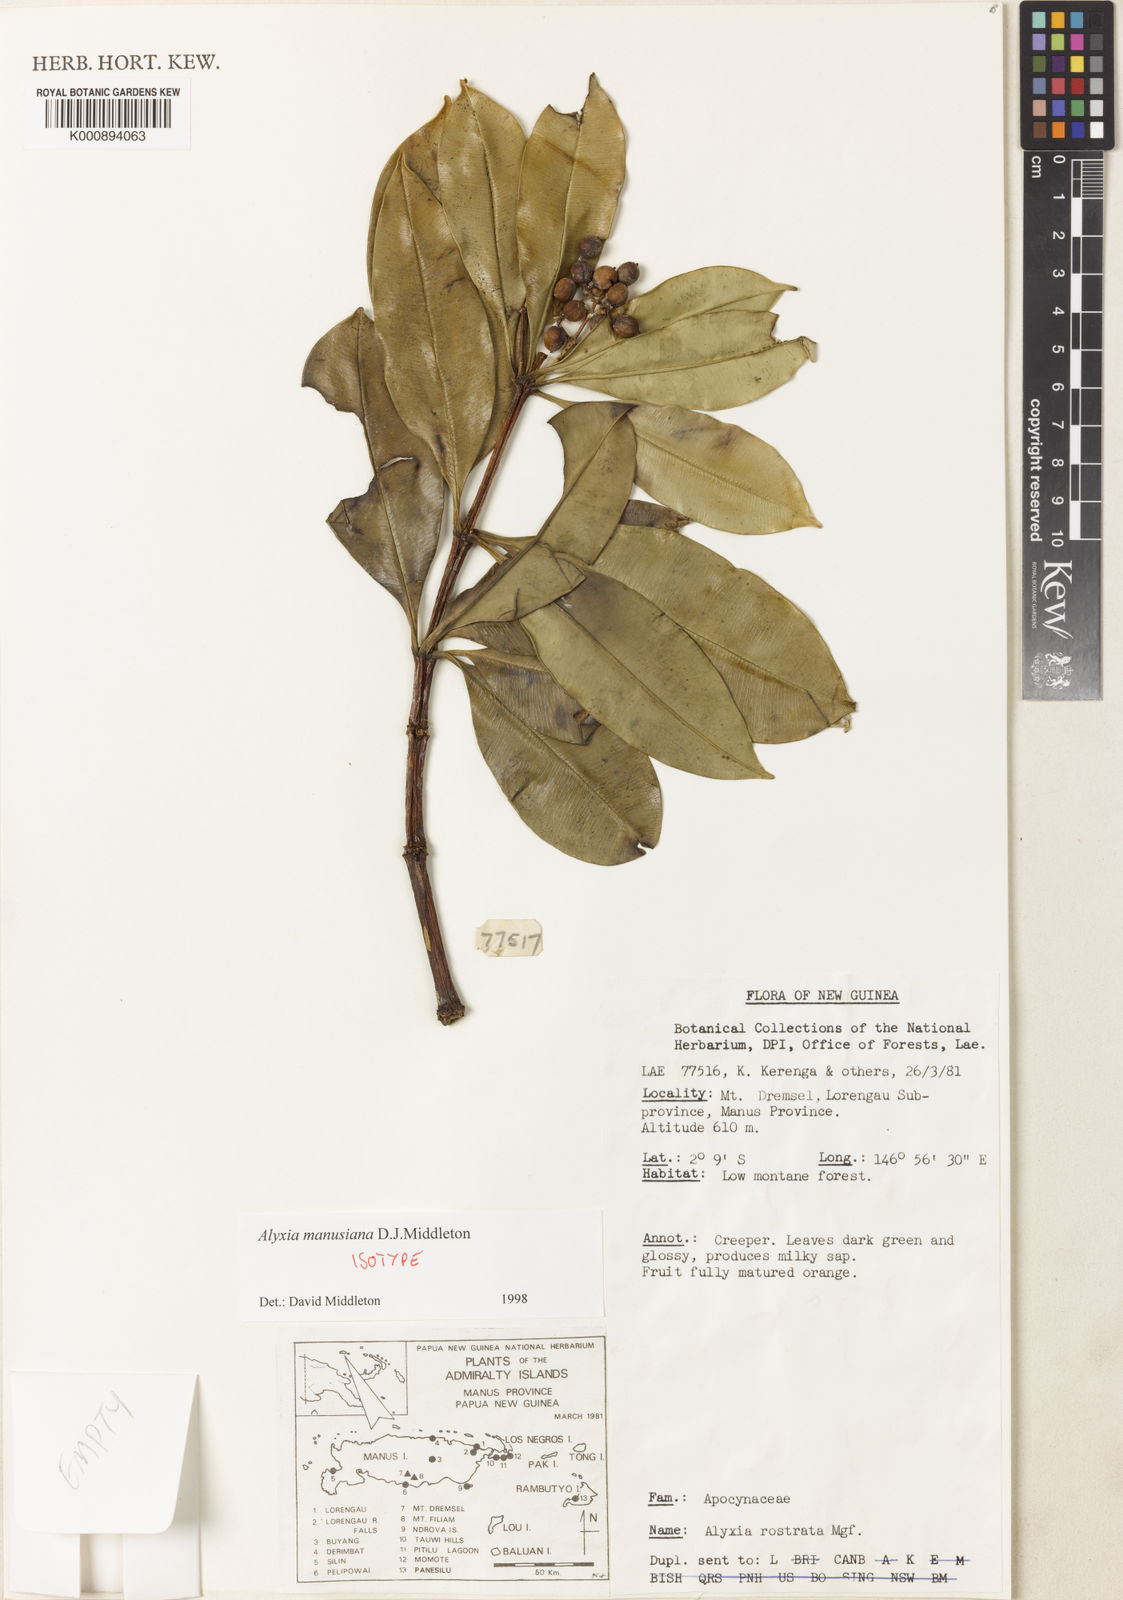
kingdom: Plantae
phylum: Tracheophyta
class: Magnoliopsida
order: Gentianales
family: Apocynaceae
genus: Alyxia
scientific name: Alyxia manusiana
